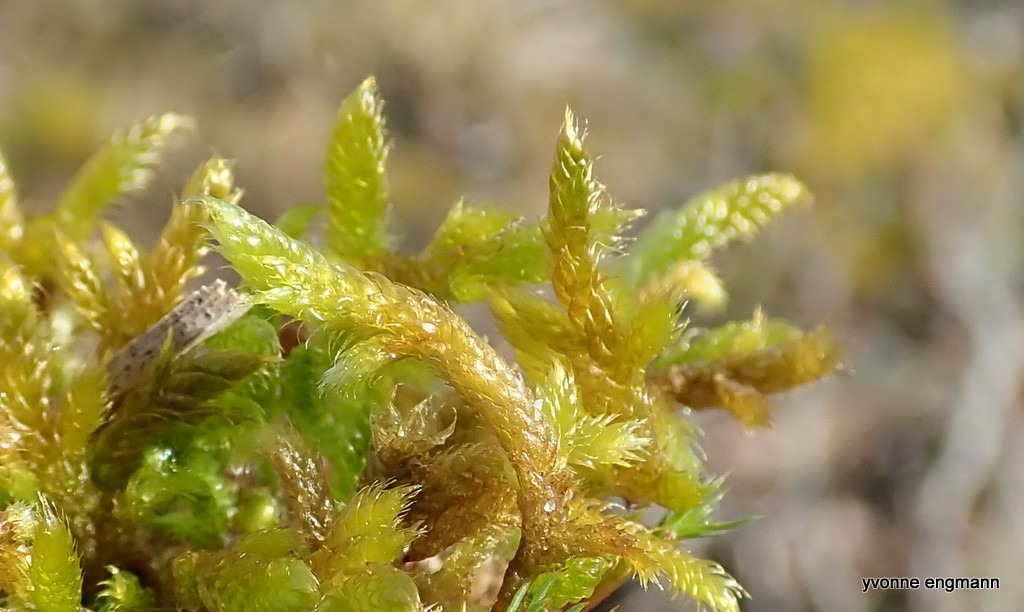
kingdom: Plantae
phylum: Bryophyta
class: Bryopsida
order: Hypnales
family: Hypnaceae
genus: Hypnum
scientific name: Hypnum cupressiforme
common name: Almindelig cypresmos
